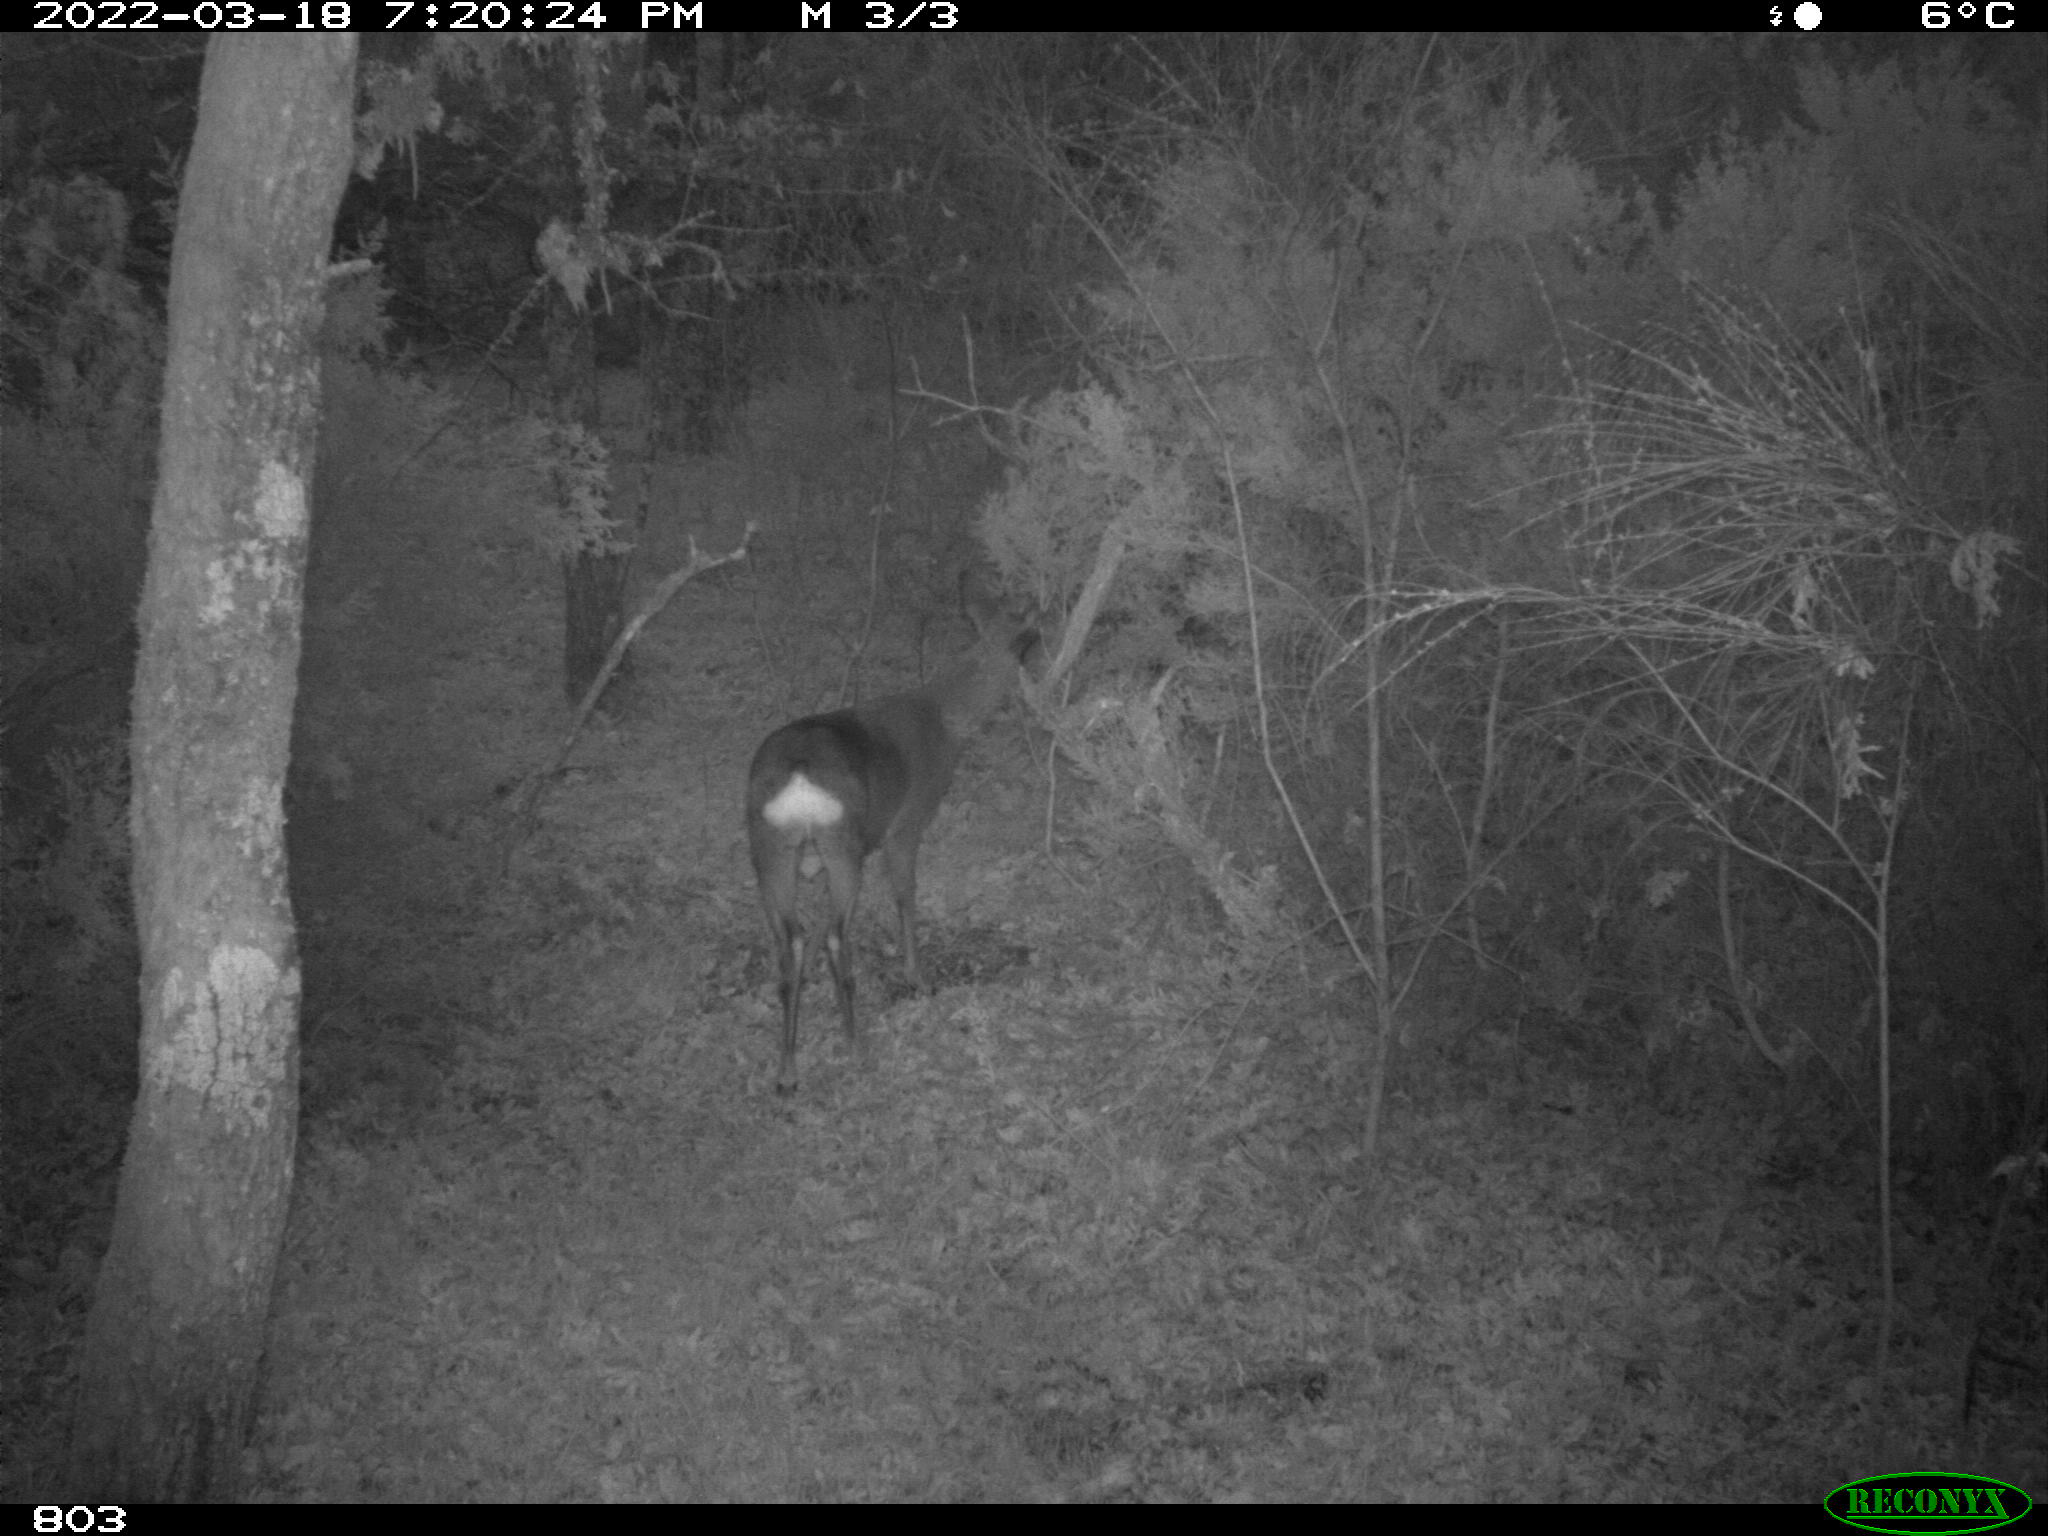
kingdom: Animalia
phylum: Chordata
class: Mammalia
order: Artiodactyla
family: Cervidae
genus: Capreolus
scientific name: Capreolus capreolus
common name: Western roe deer
